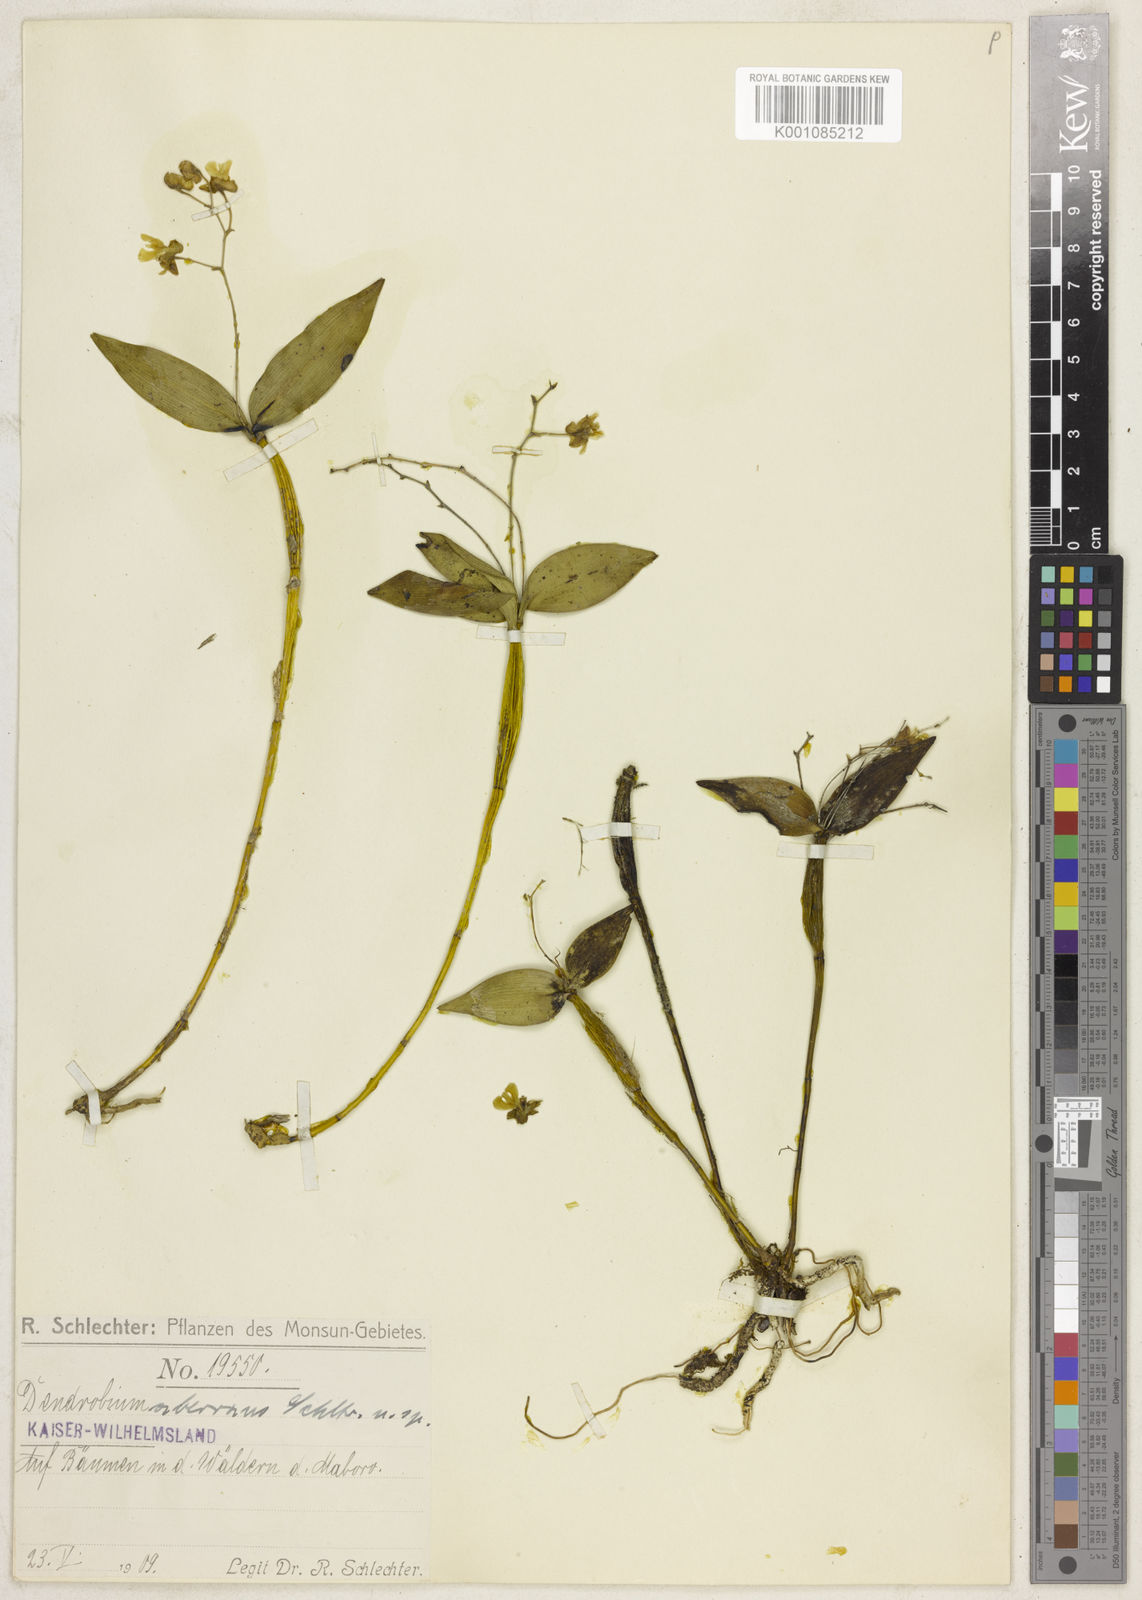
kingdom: Plantae
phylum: Tracheophyta
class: Liliopsida
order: Asparagales
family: Orchidaceae
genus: Dendrobium
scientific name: Dendrobium aberrans
